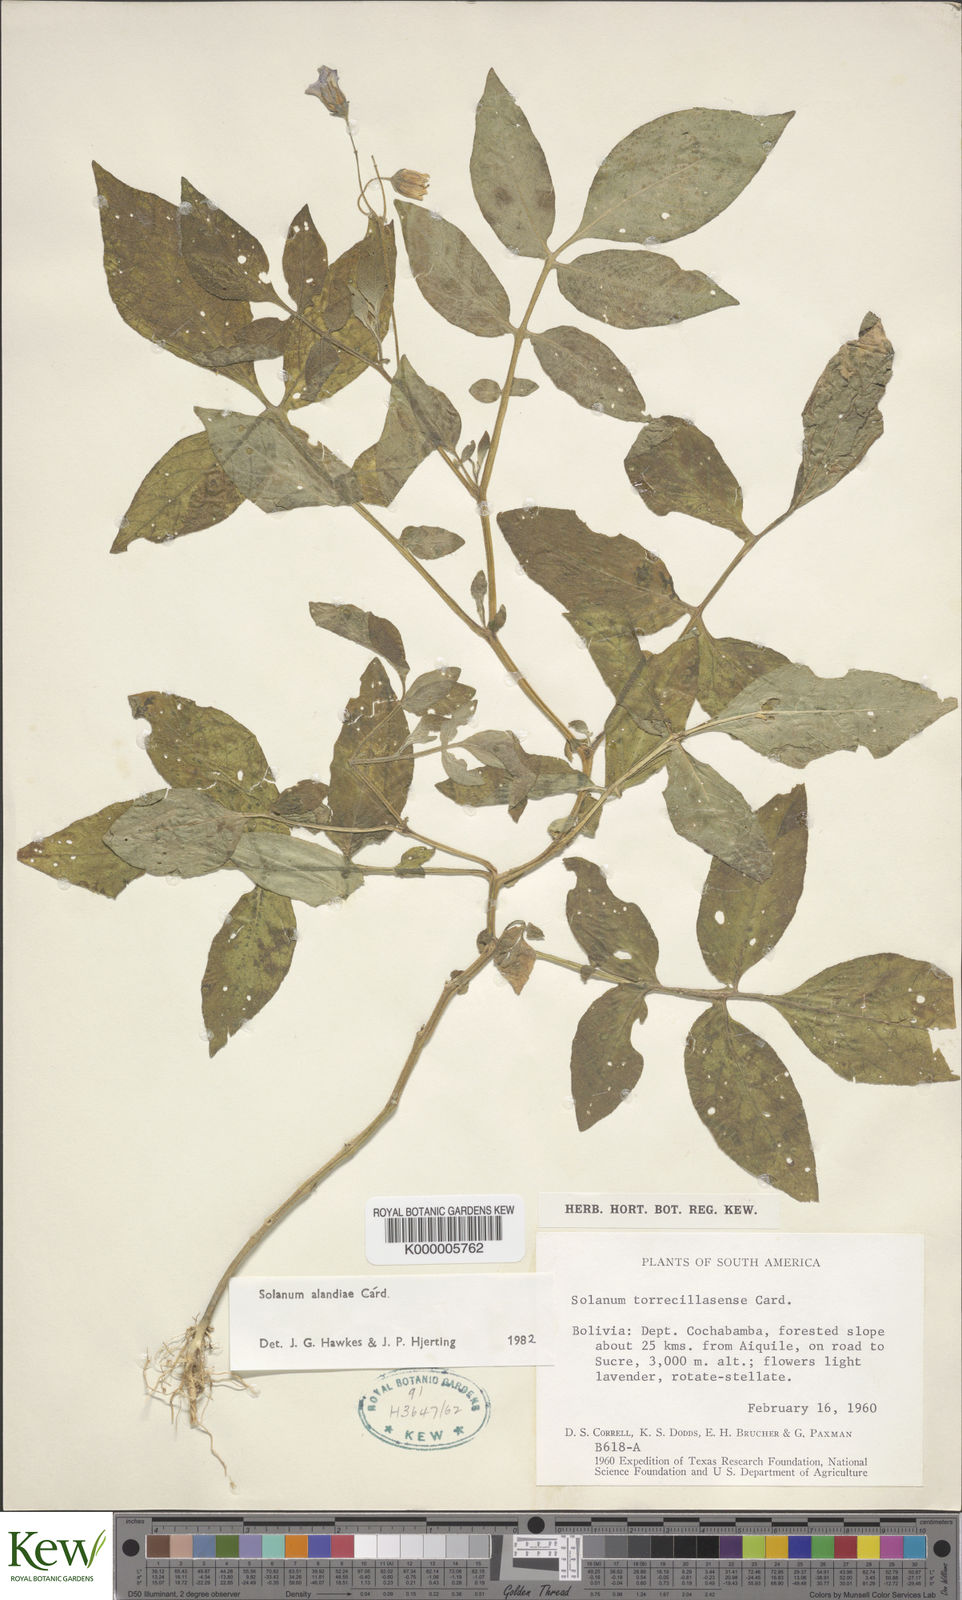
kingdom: Plantae
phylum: Tracheophyta
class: Magnoliopsida
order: Solanales
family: Solanaceae
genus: Solanum
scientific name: Solanum brevicaule
